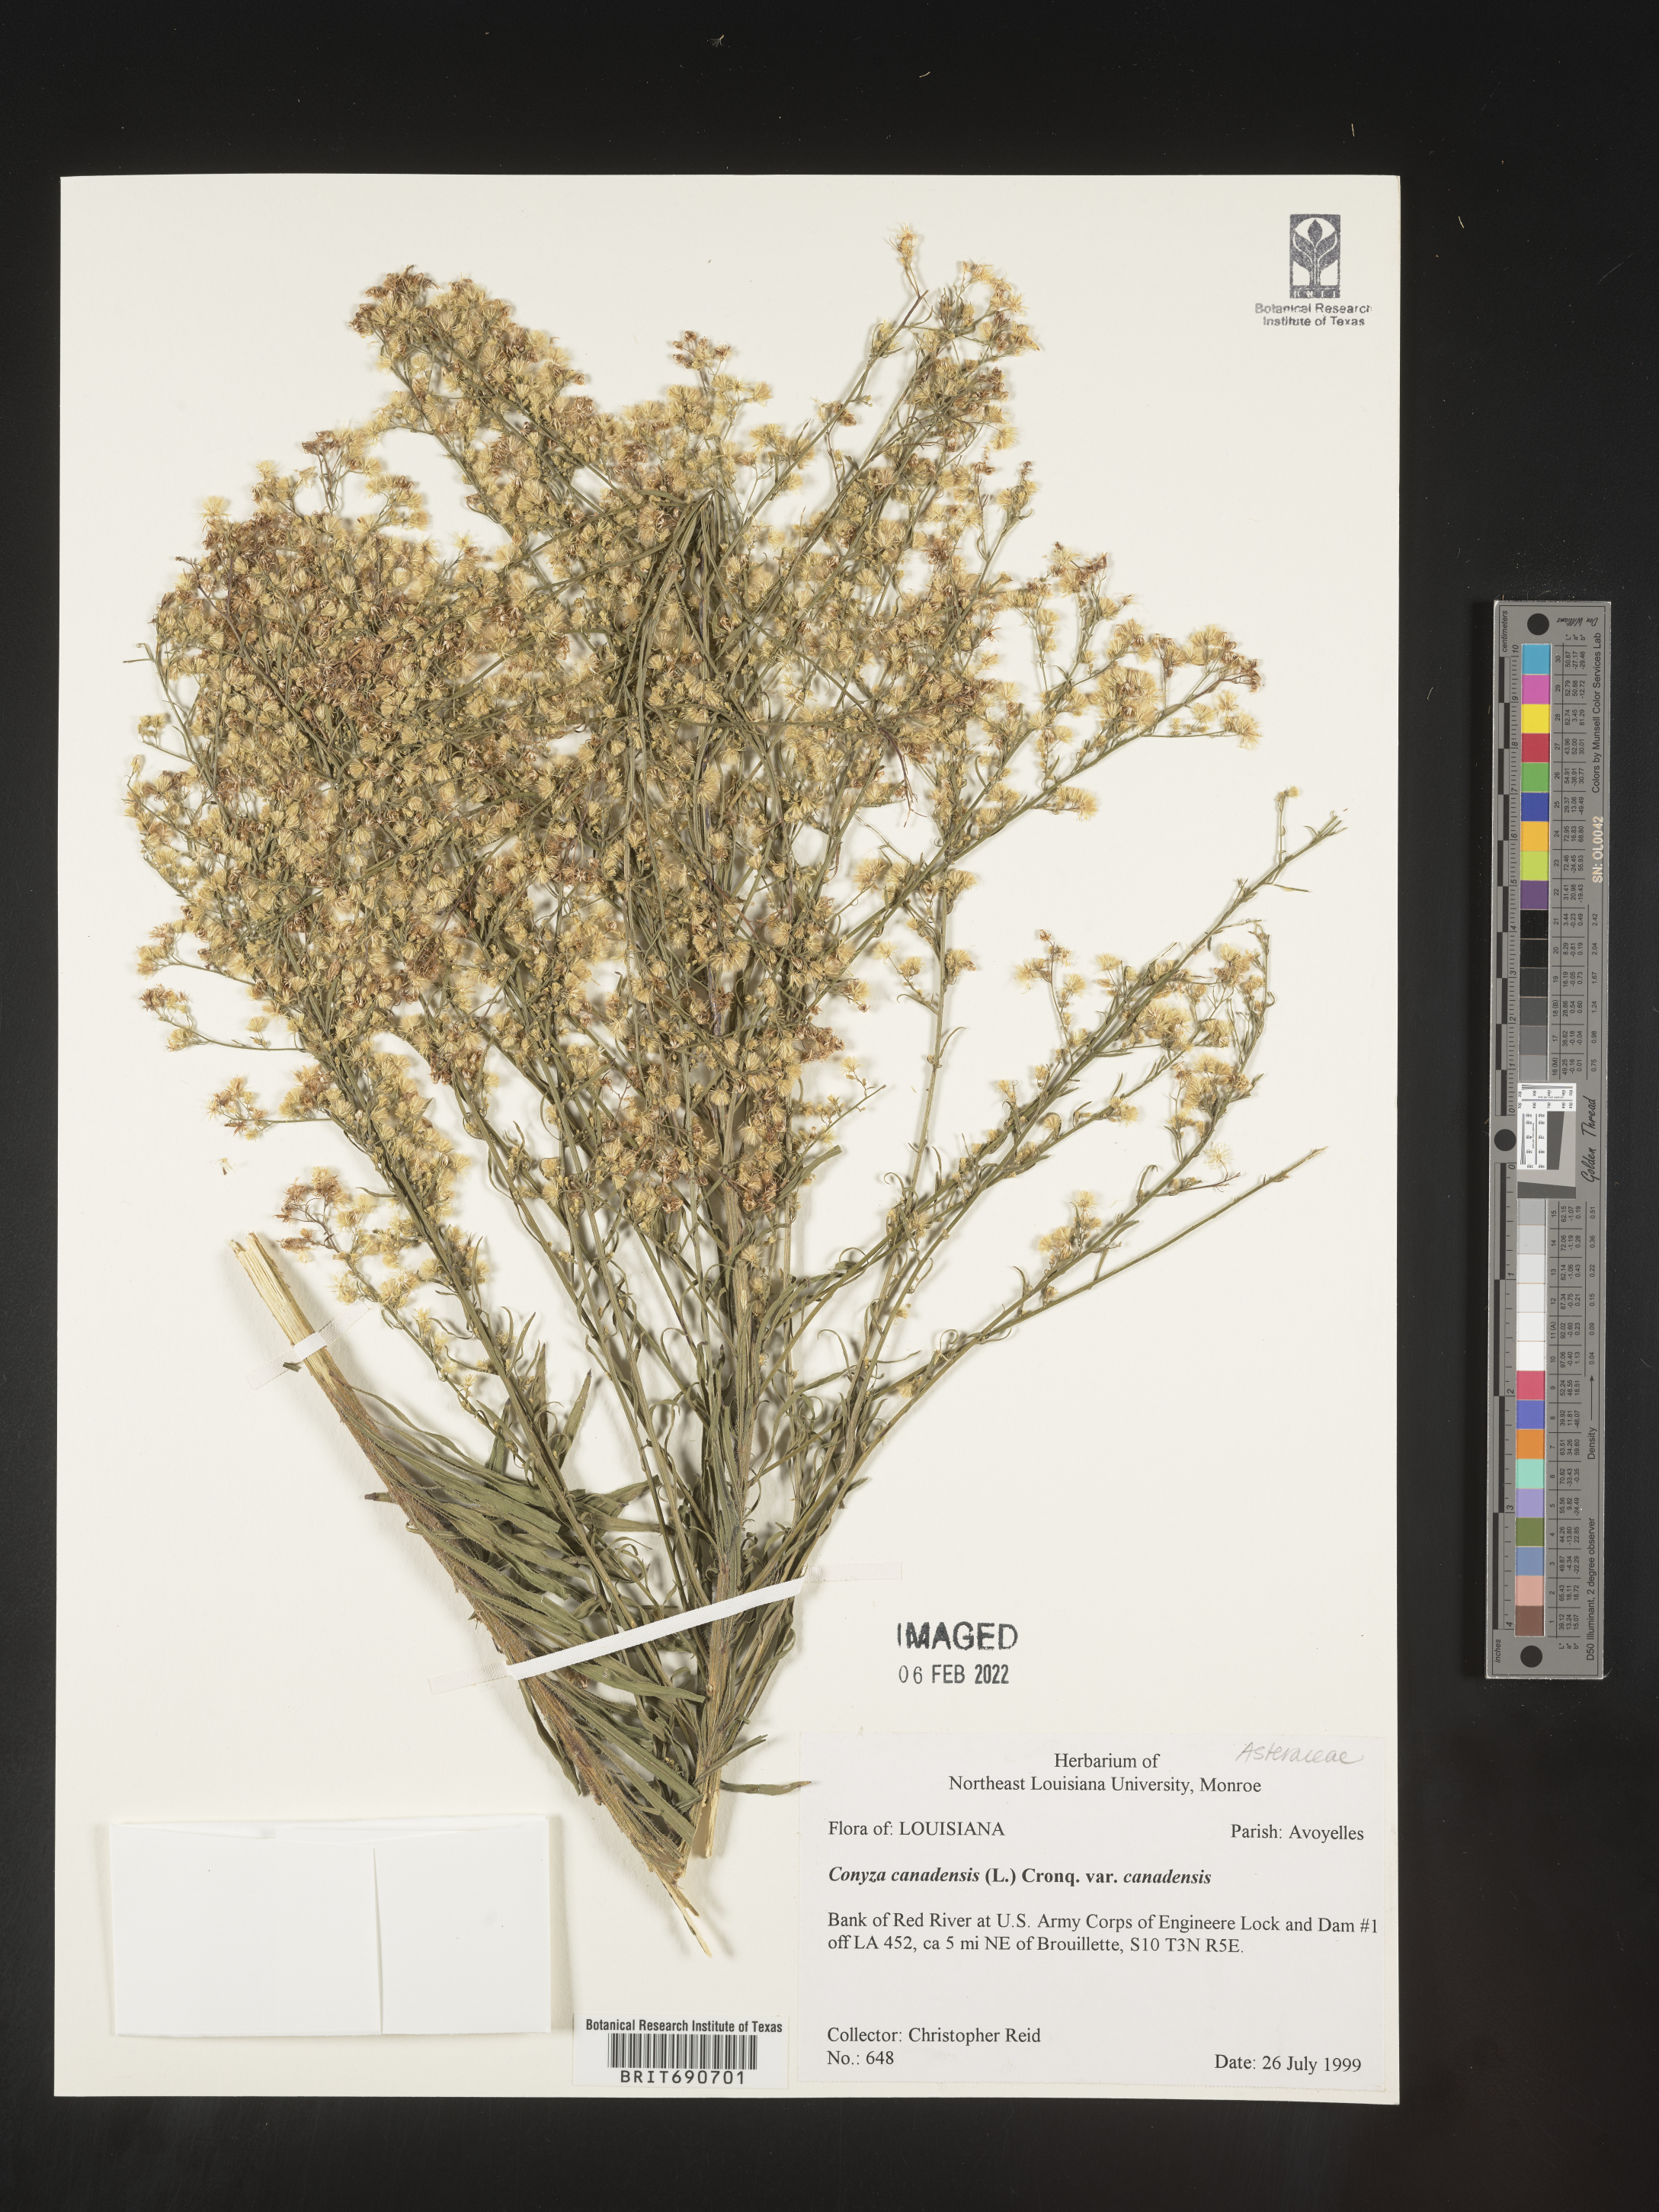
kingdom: Plantae
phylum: Tracheophyta
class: Magnoliopsida
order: Asterales
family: Asteraceae
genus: Erigeron
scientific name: Erigeron canadensis
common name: Canadian fleabane
